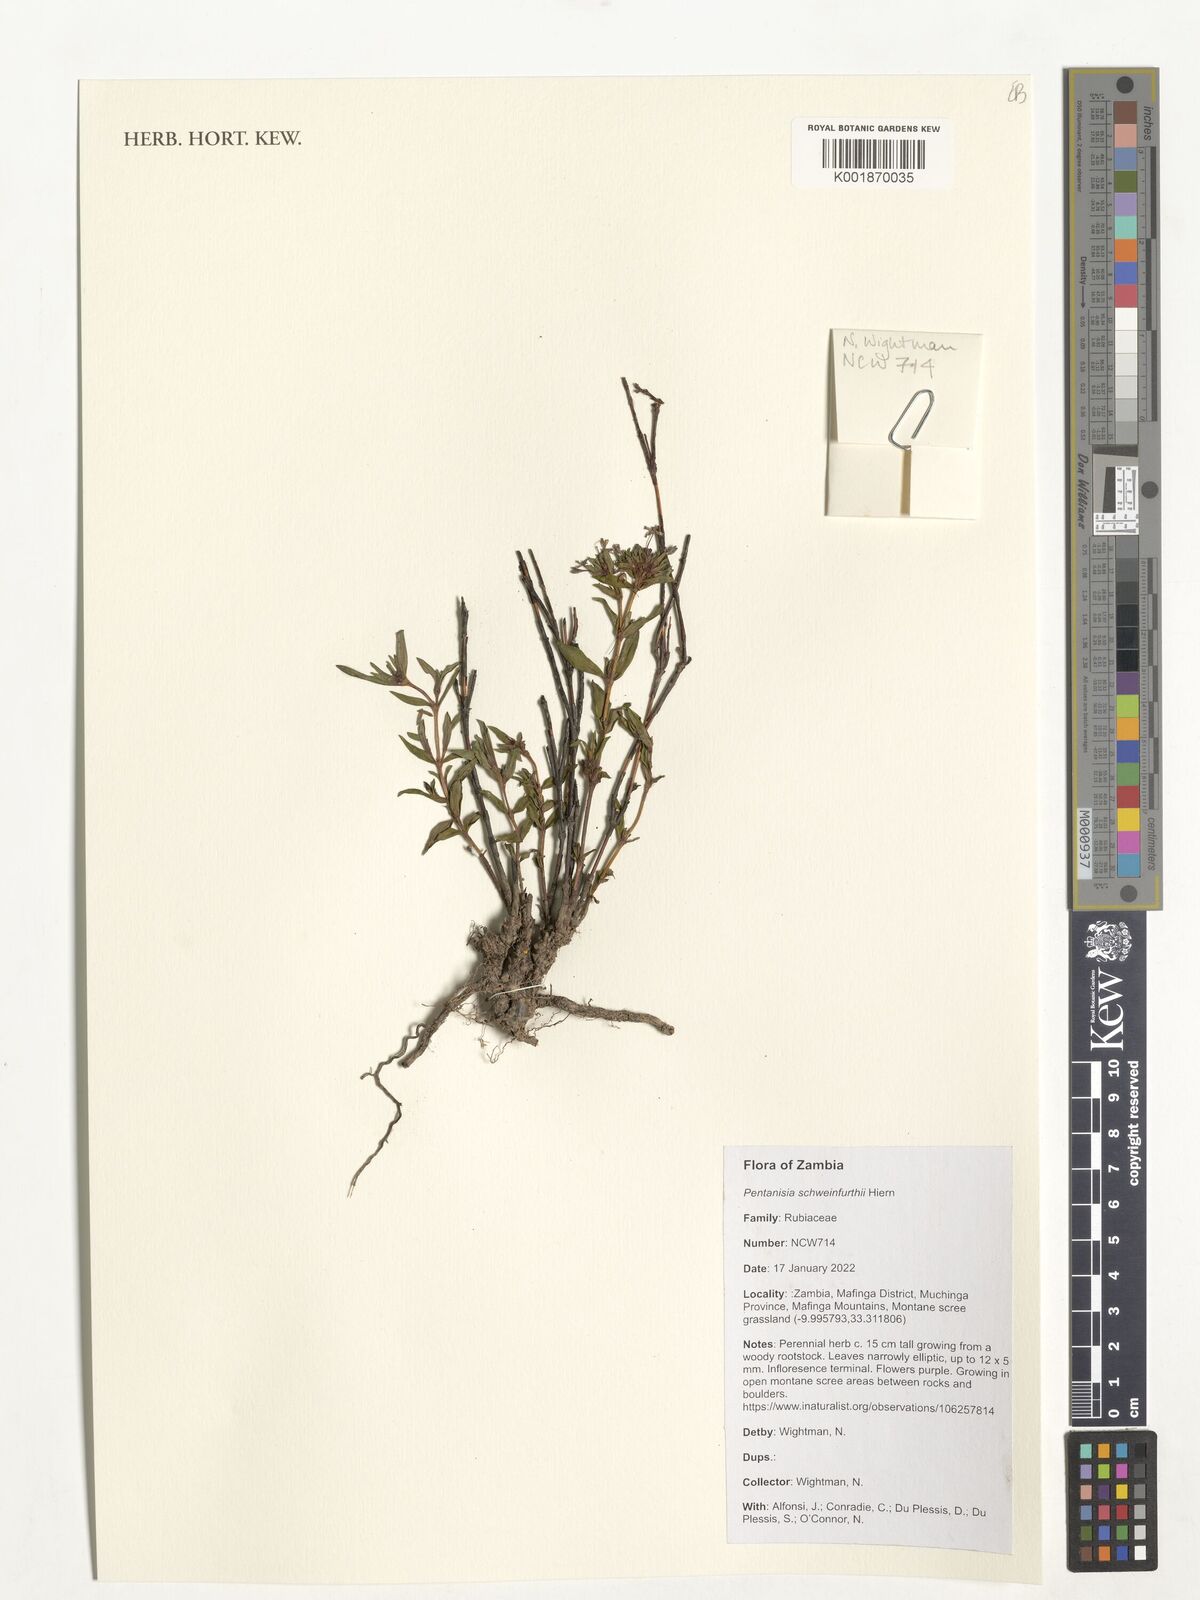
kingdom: Plantae
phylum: Tracheophyta
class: Magnoliopsida
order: Gentianales
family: Rubiaceae
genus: Pentanisia
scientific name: Pentanisia schweinfurthii
